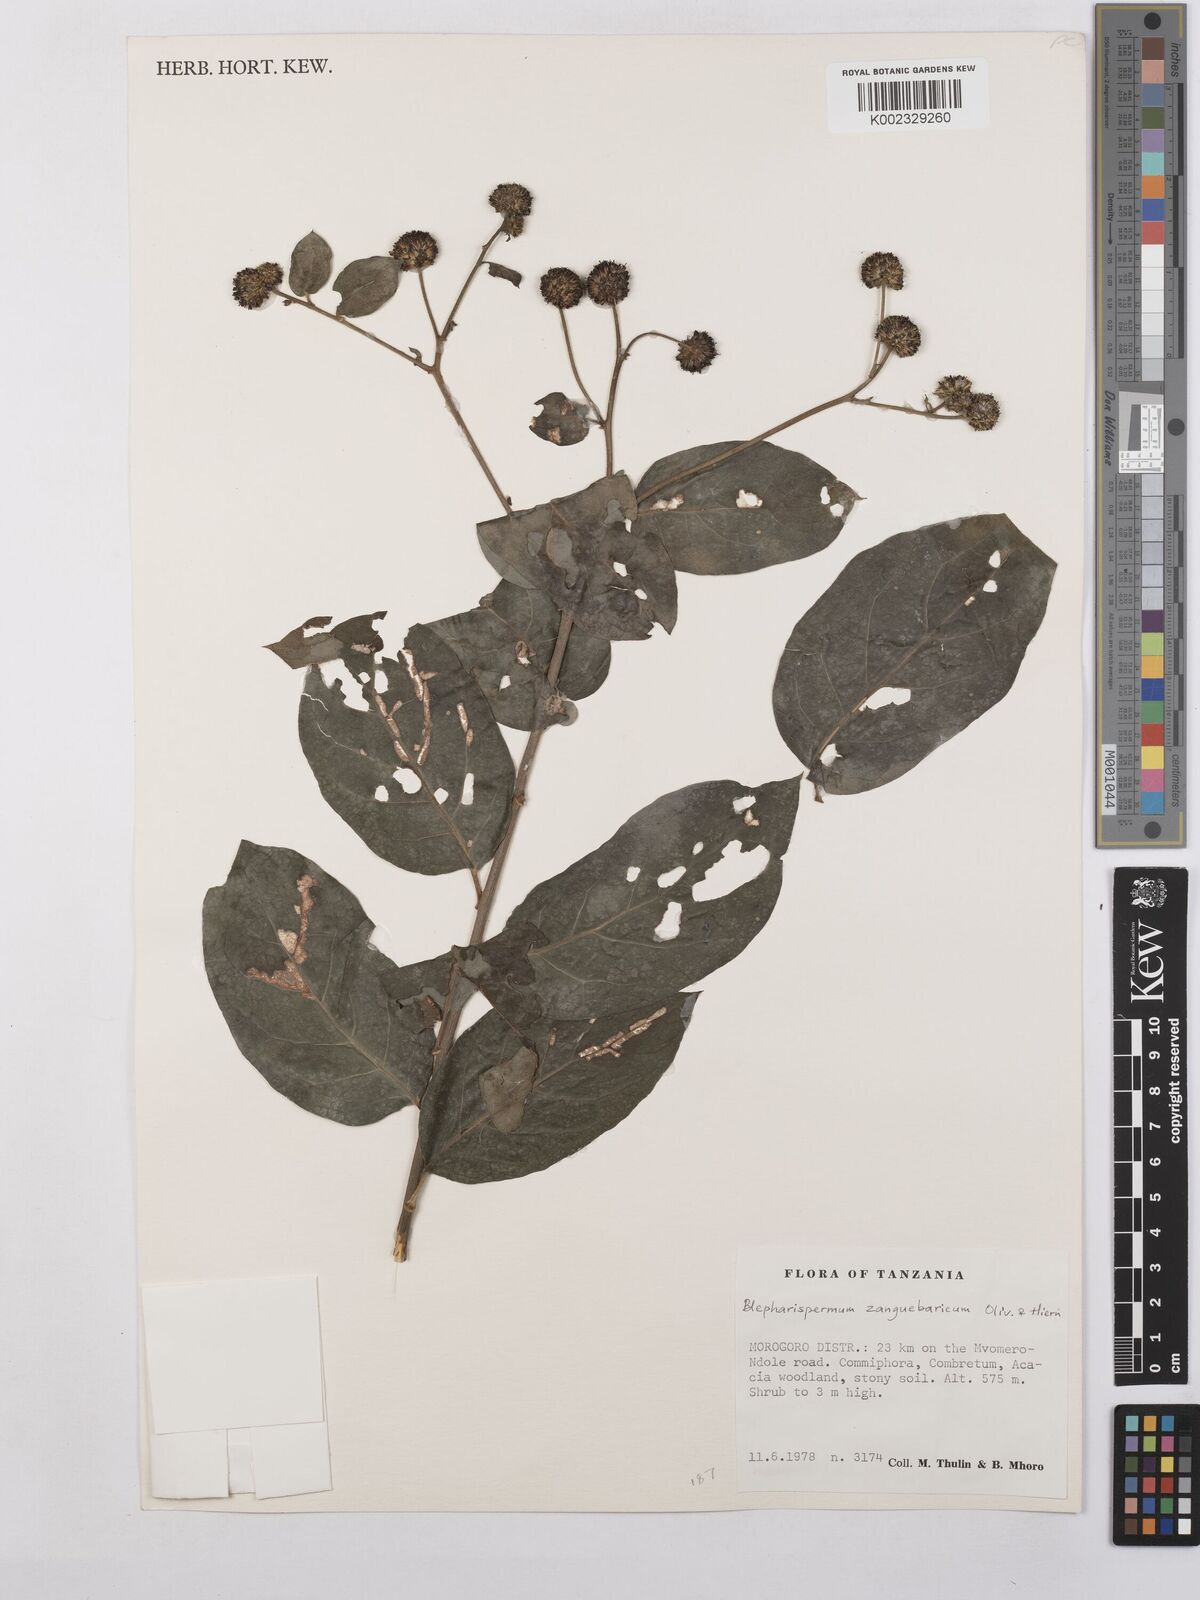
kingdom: Plantae
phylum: Tracheophyta
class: Magnoliopsida
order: Asterales
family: Asteraceae
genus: Blepharispermum
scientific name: Blepharispermum zanguebaricum
